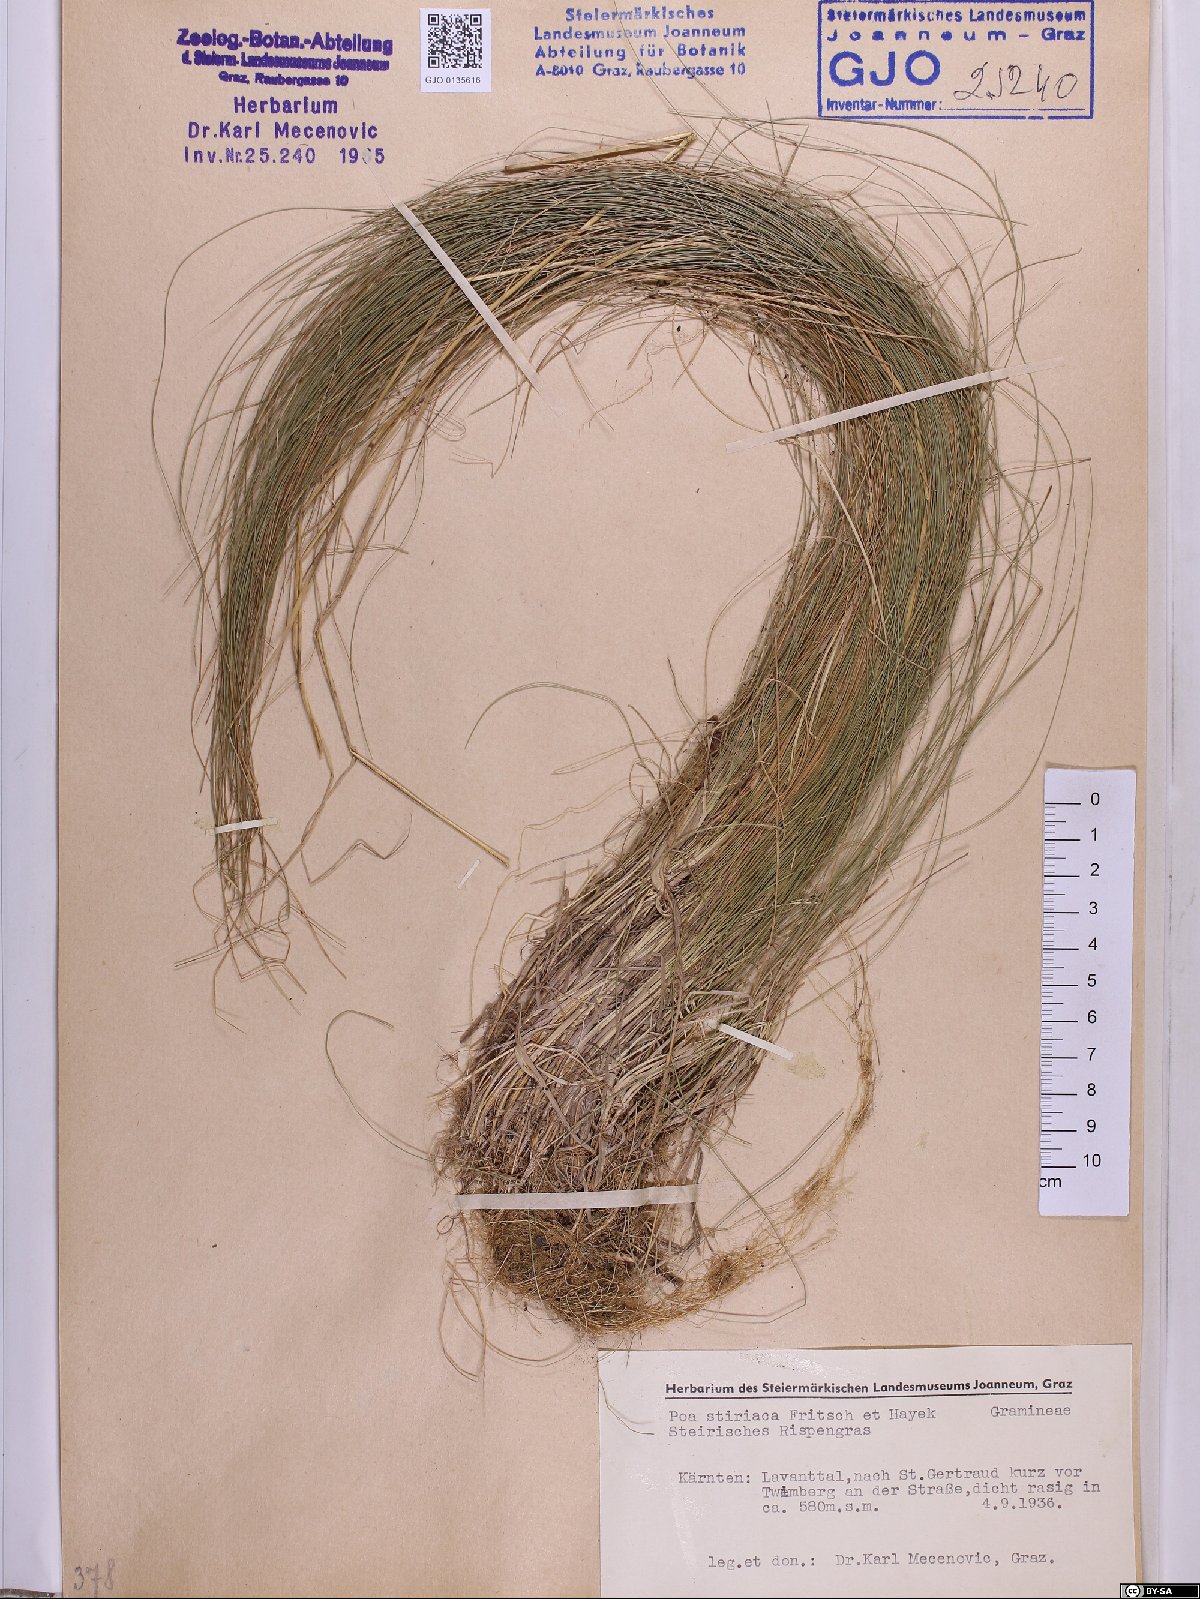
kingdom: Plantae
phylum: Tracheophyta
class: Liliopsida
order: Poales
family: Poaceae
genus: Poa
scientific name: Poa stiriaca
